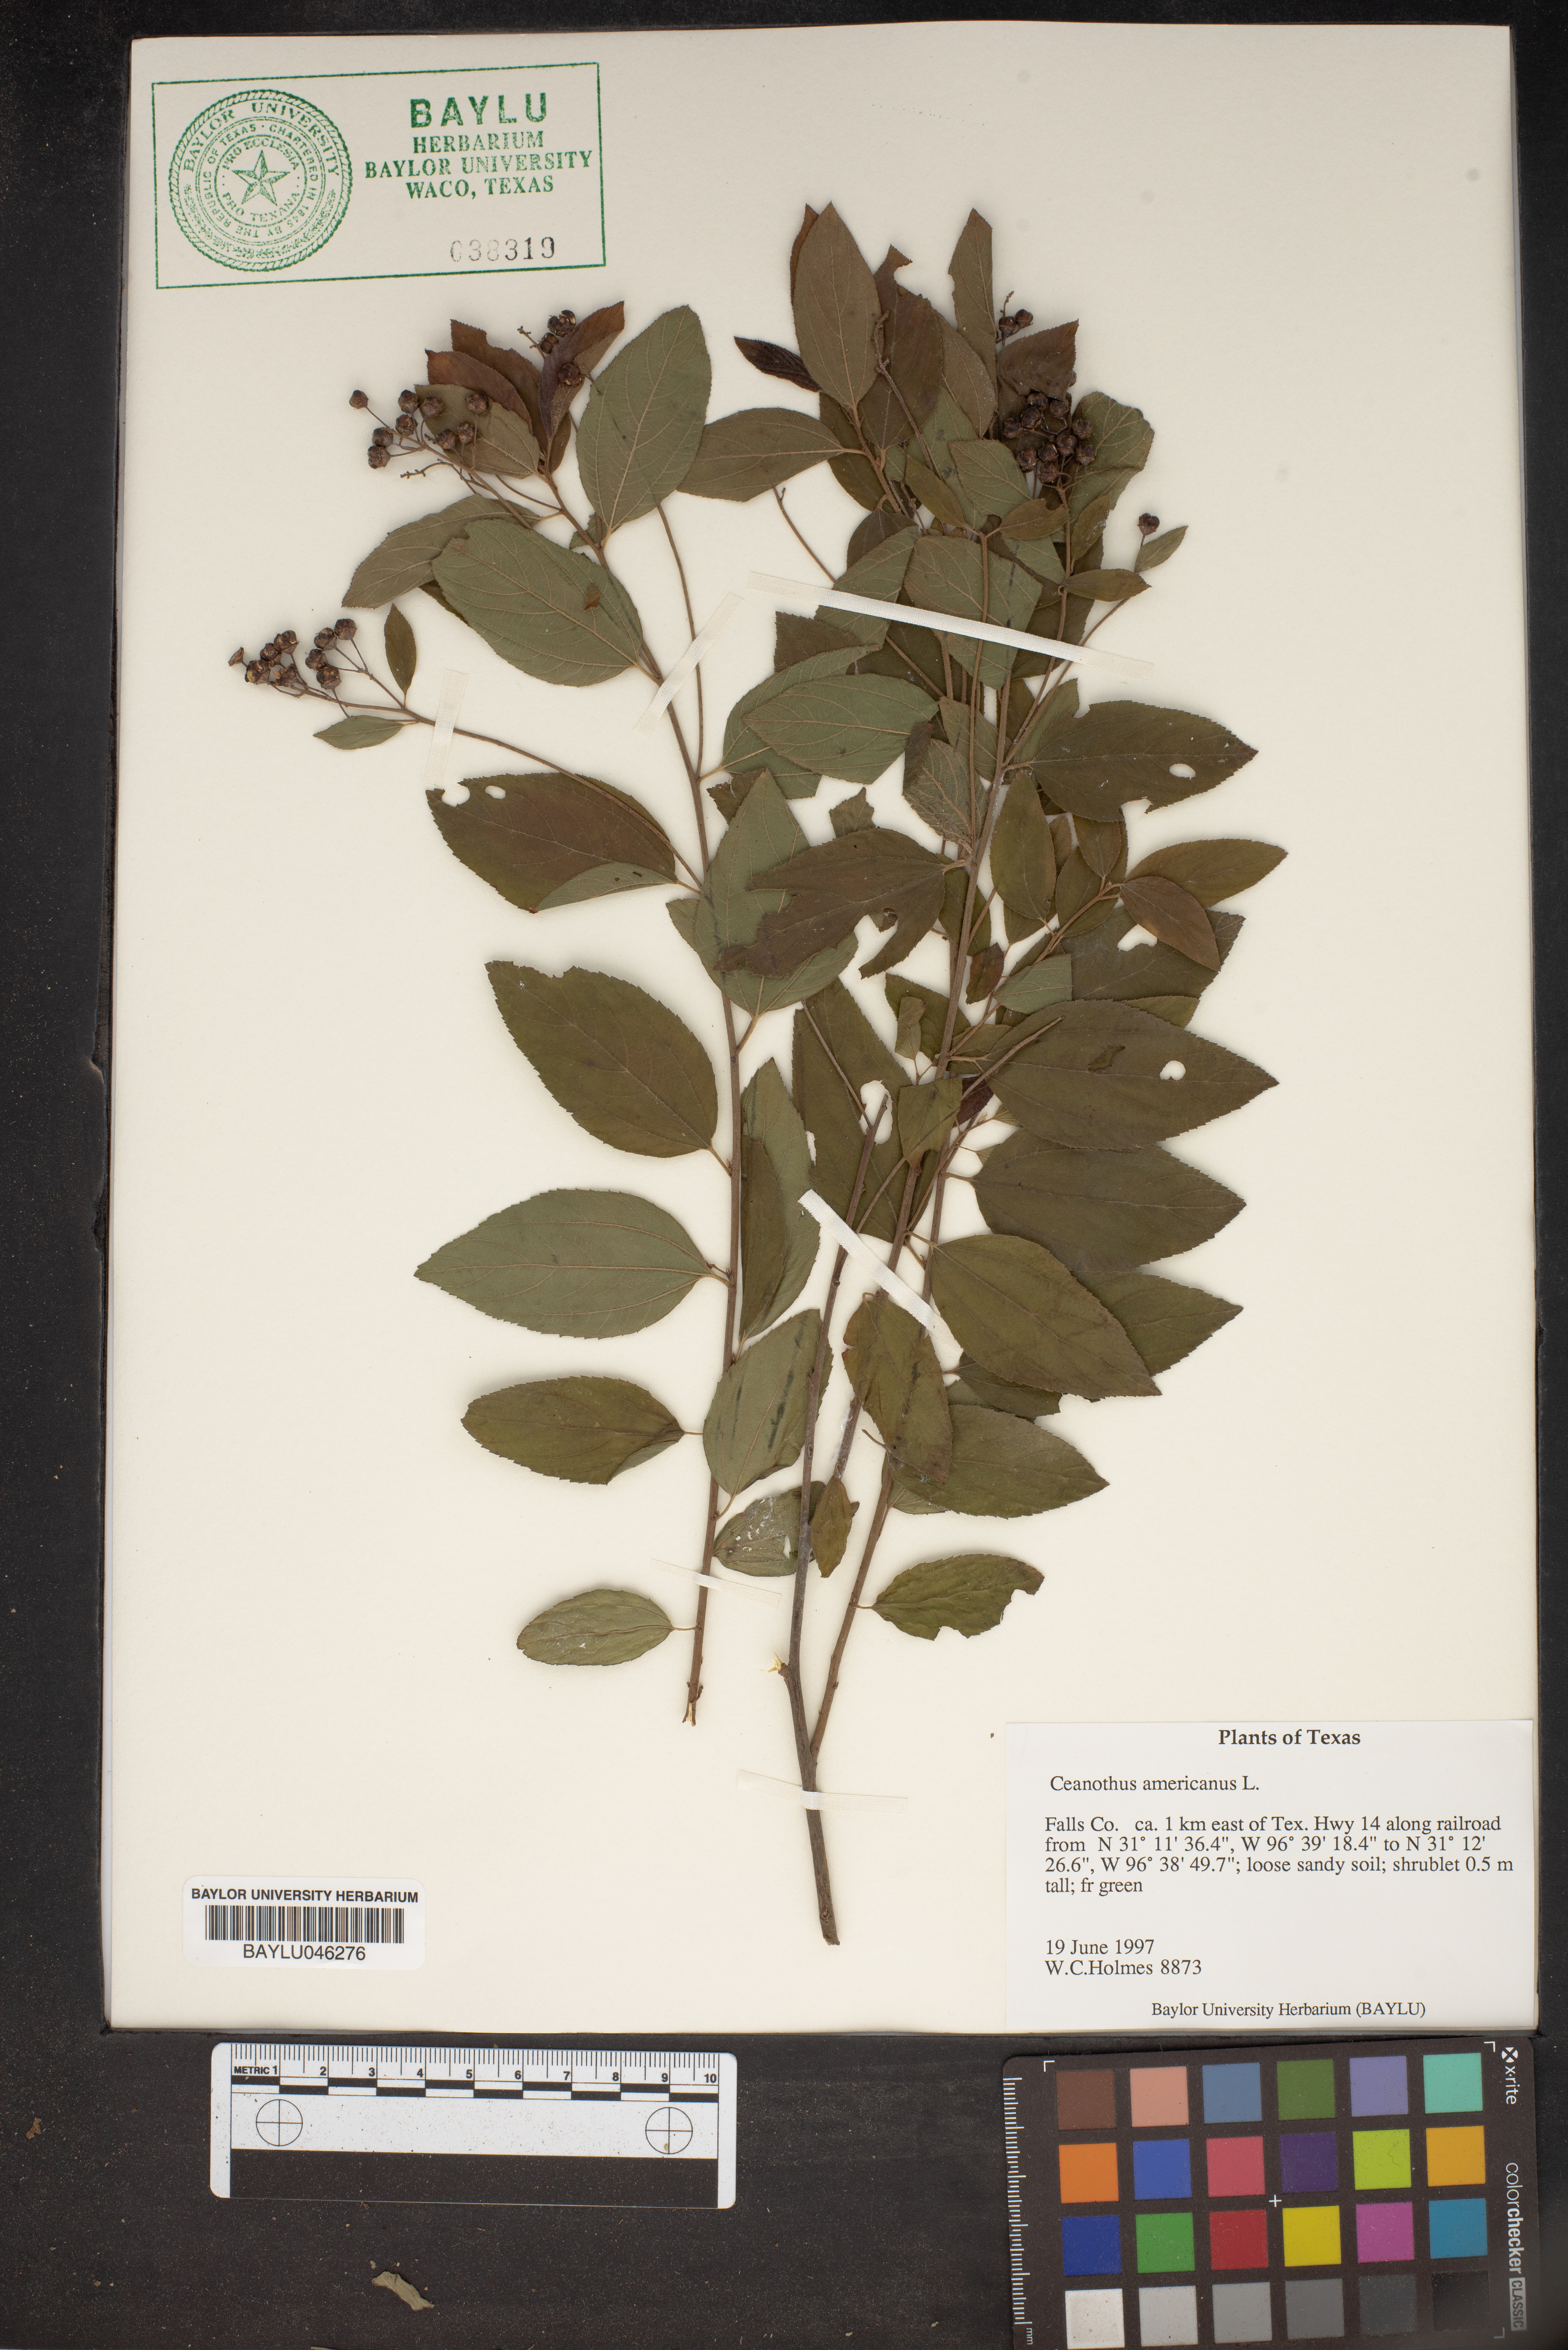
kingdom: Plantae
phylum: Tracheophyta
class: Magnoliopsida
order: Rosales
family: Rhamnaceae
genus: Ceanothus
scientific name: Ceanothus americanus
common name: Redroot
